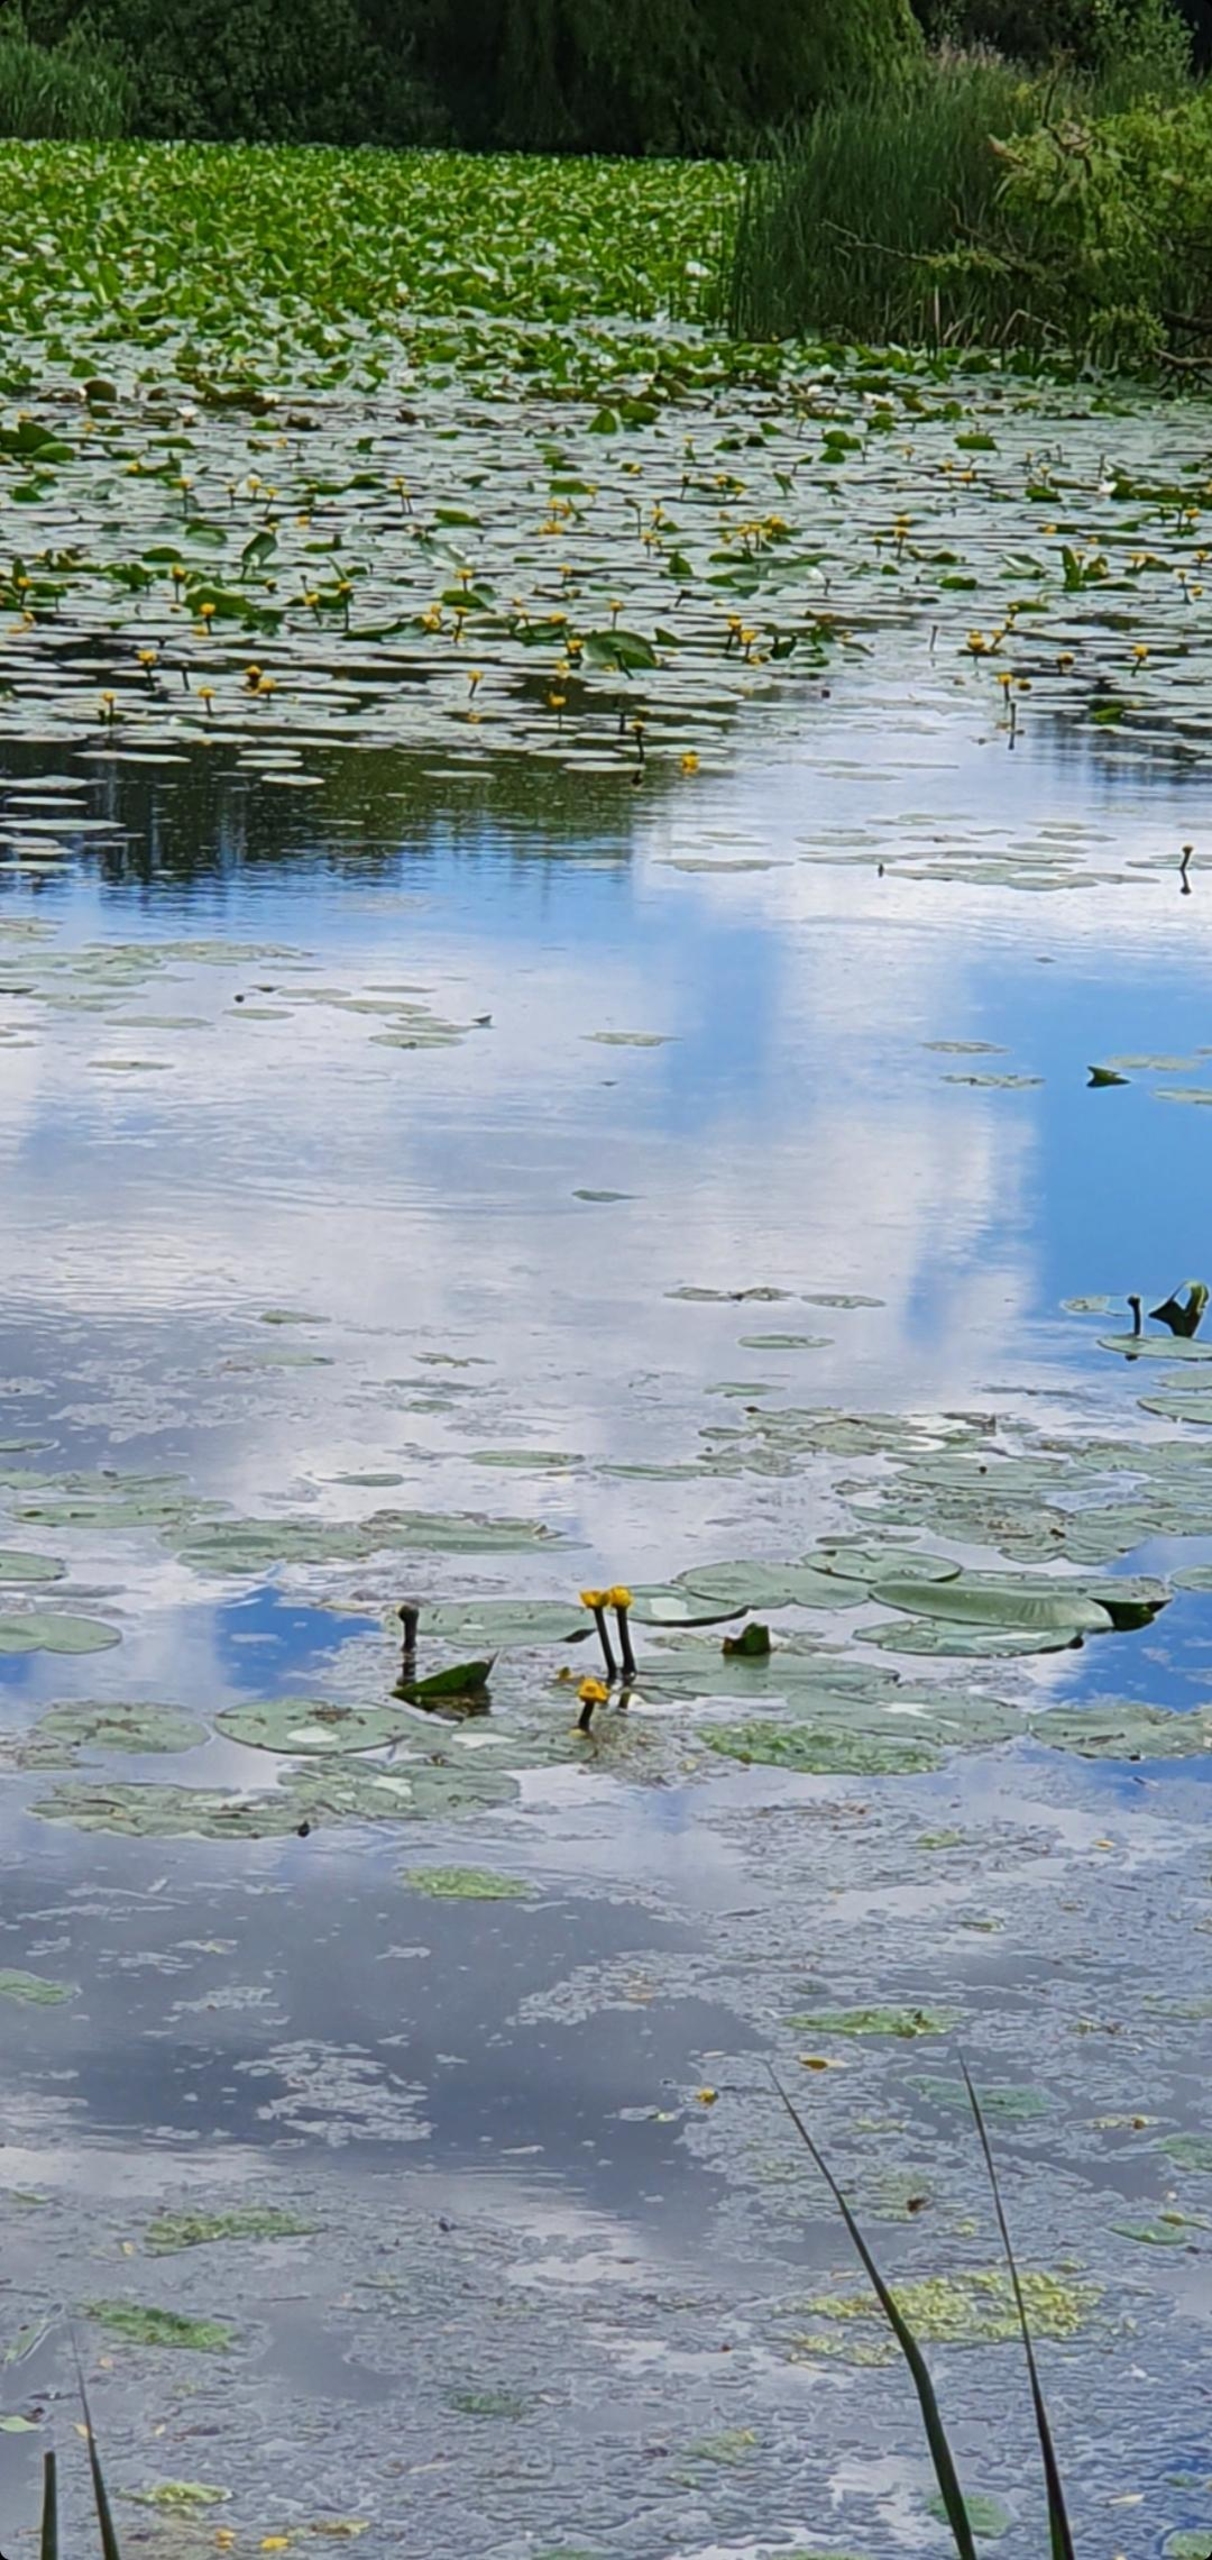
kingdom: Plantae
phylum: Tracheophyta
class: Magnoliopsida
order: Nymphaeales
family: Nymphaeaceae
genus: Nuphar
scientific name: Nuphar lutea
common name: Gul åkande
